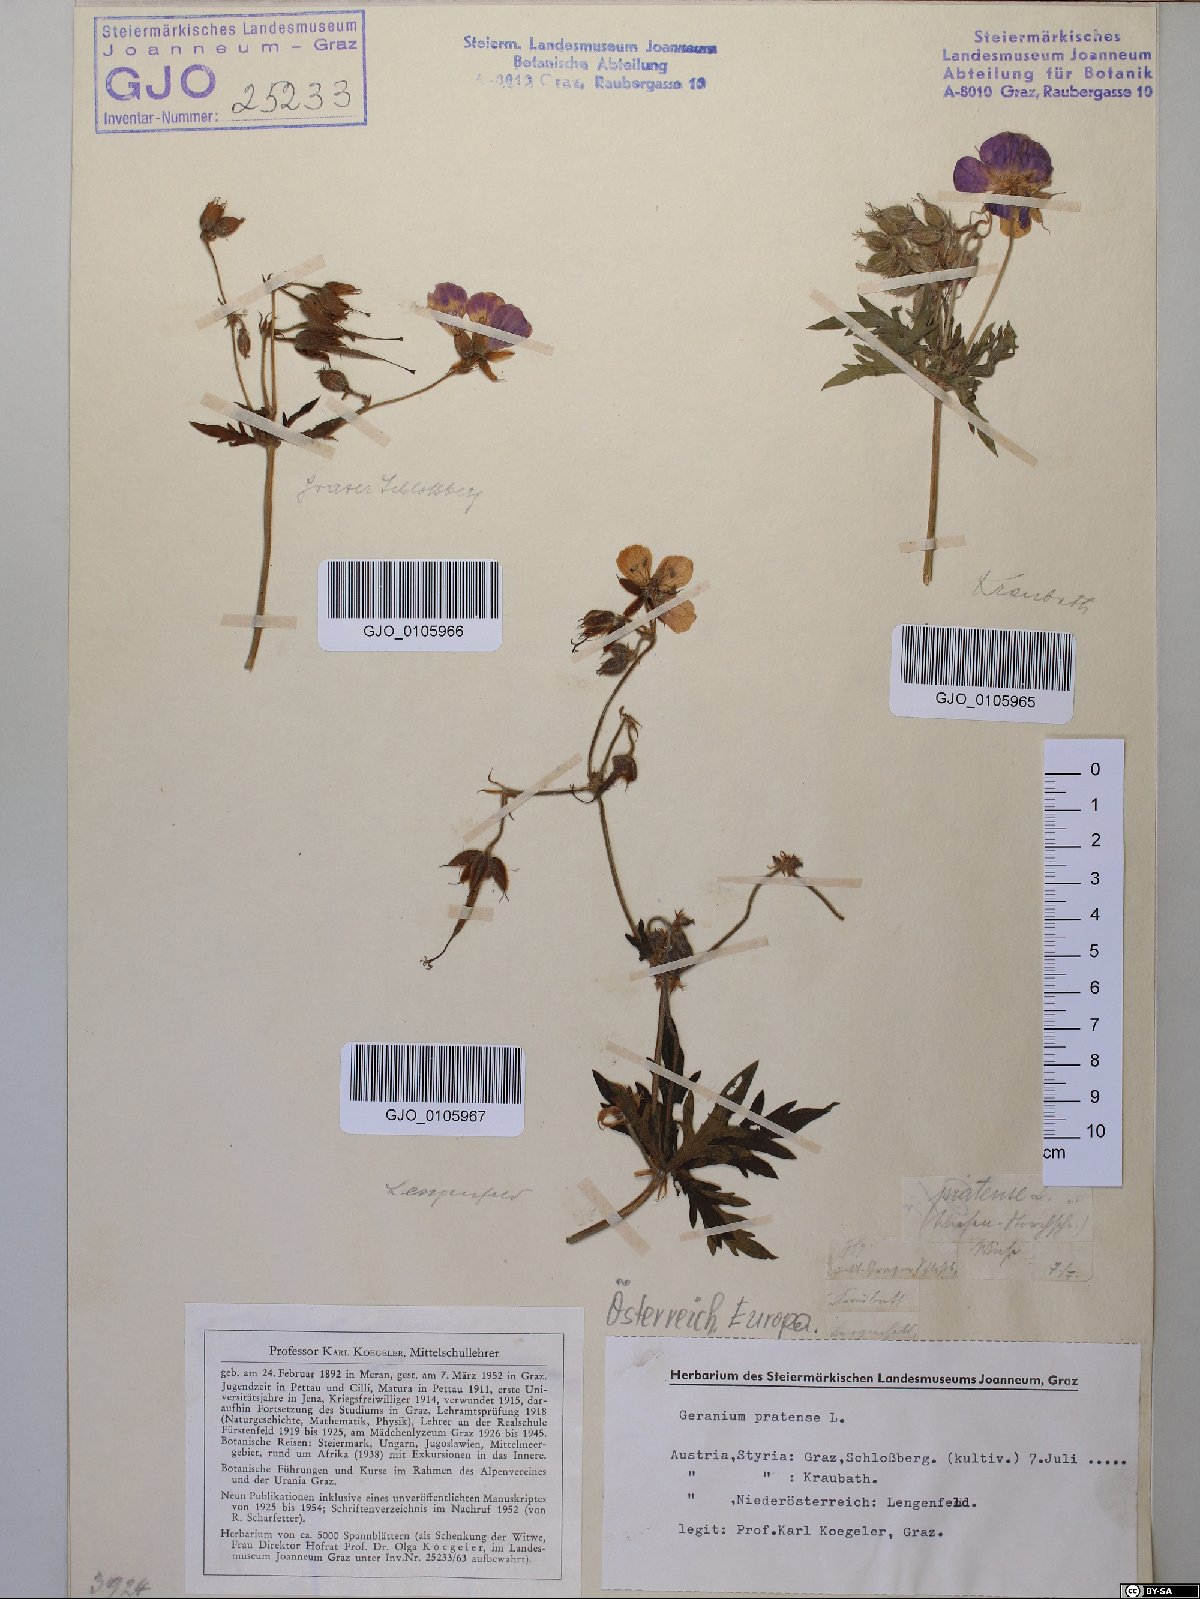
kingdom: Plantae
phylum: Tracheophyta
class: Magnoliopsida
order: Geraniales
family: Geraniaceae
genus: Geranium
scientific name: Geranium pratense
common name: Meadow crane's-bill
